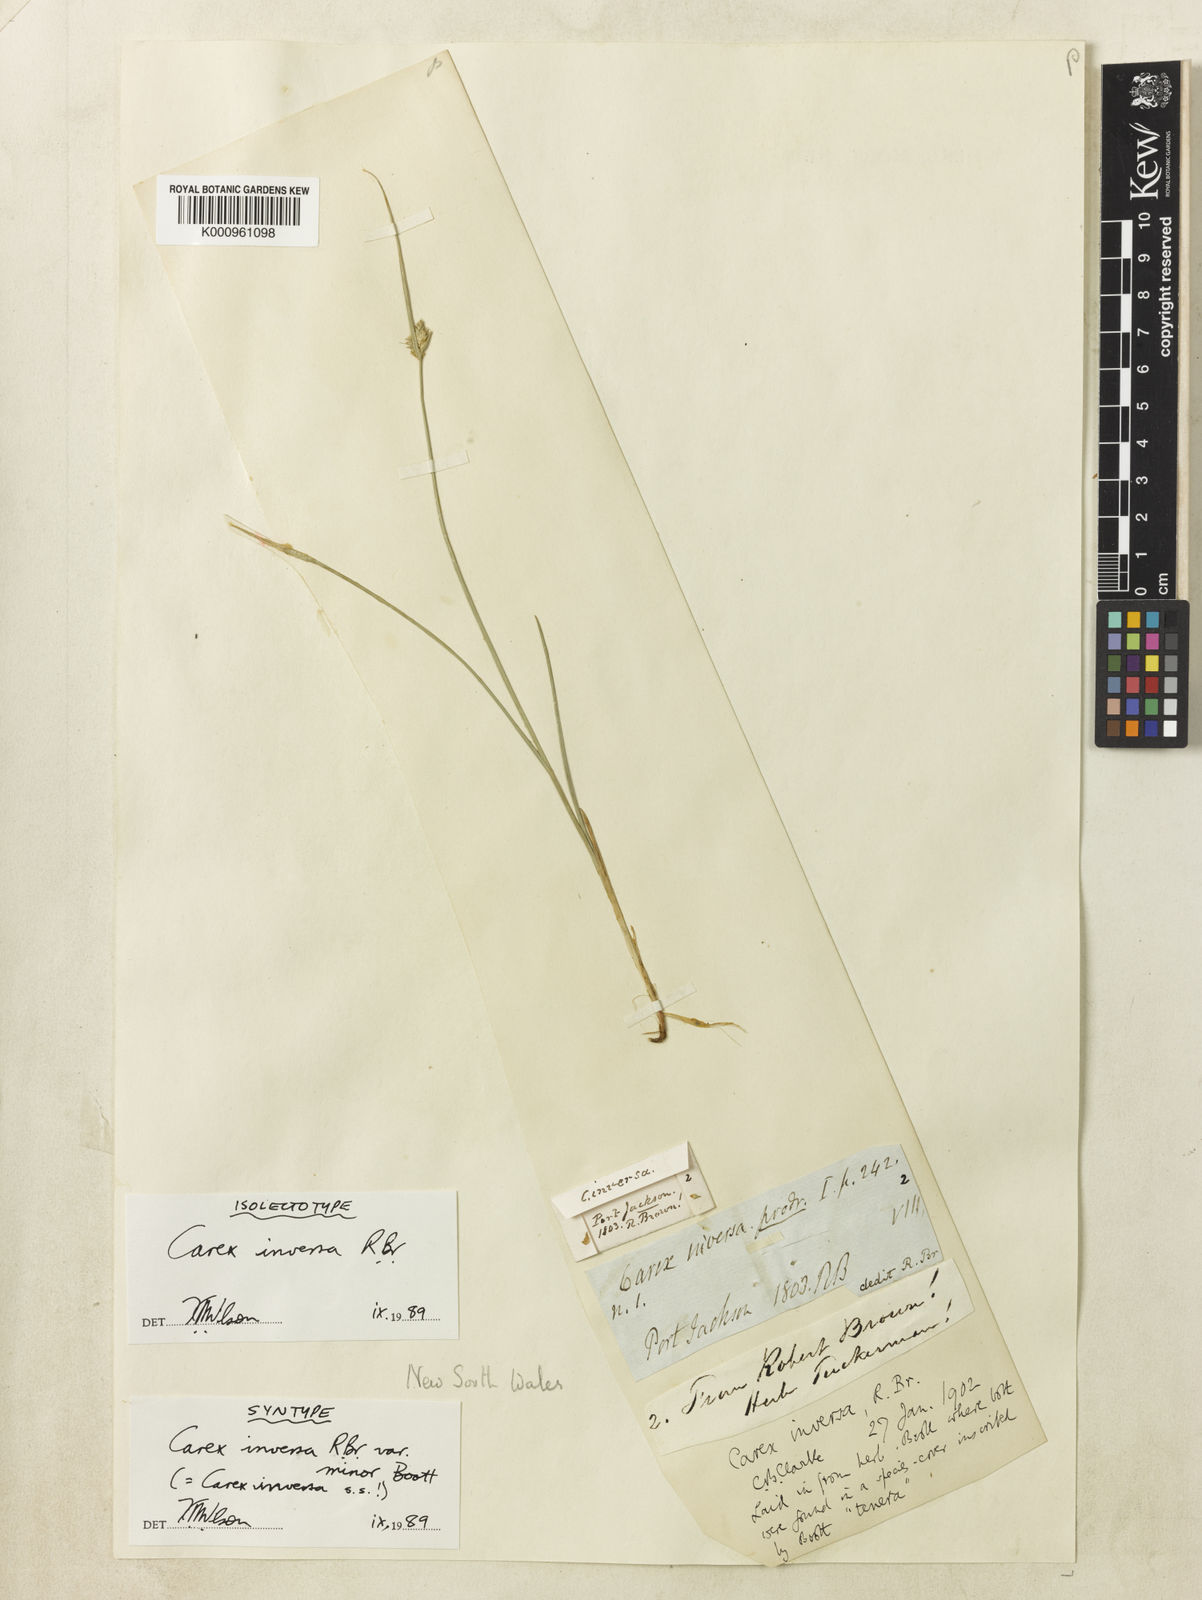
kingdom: Plantae
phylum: Tracheophyta
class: Liliopsida
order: Poales
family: Cyperaceae
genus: Carex
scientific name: Carex inversa
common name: Knob sedge
